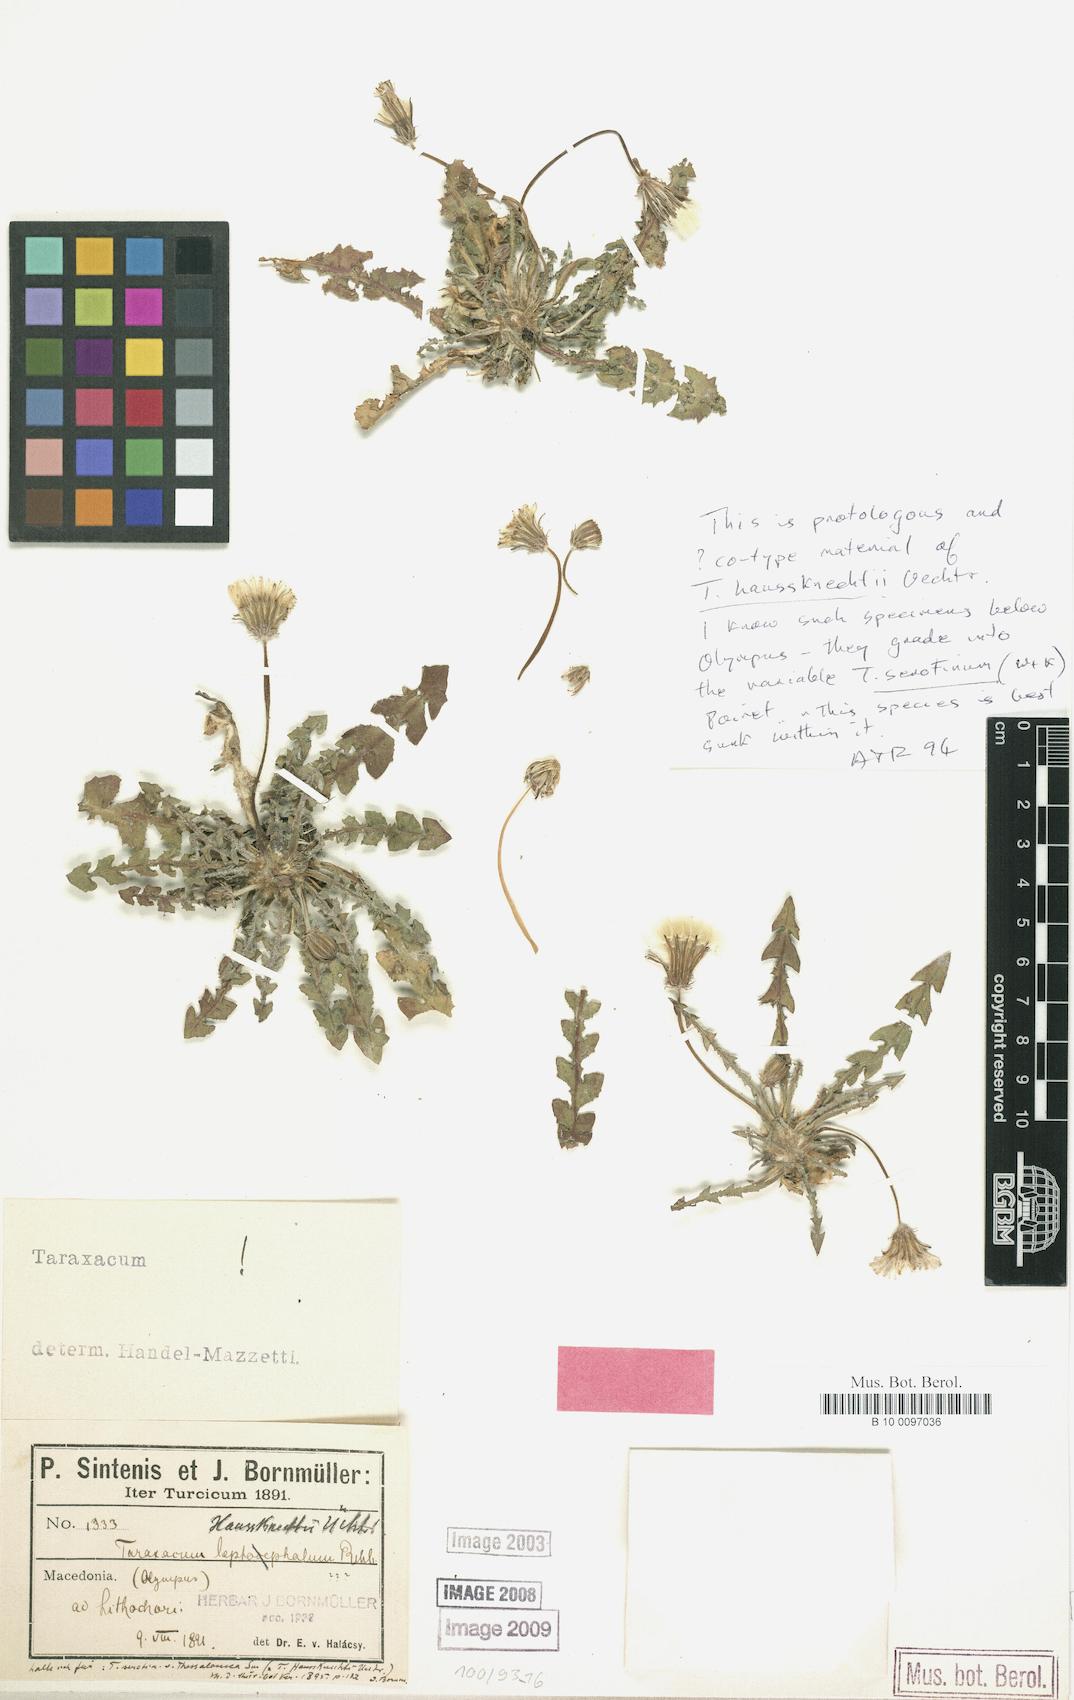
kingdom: Plantae
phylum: Tracheophyta
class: Magnoliopsida
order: Asterales
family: Asteraceae
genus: Taraxacum
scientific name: Taraxacum serotinum
